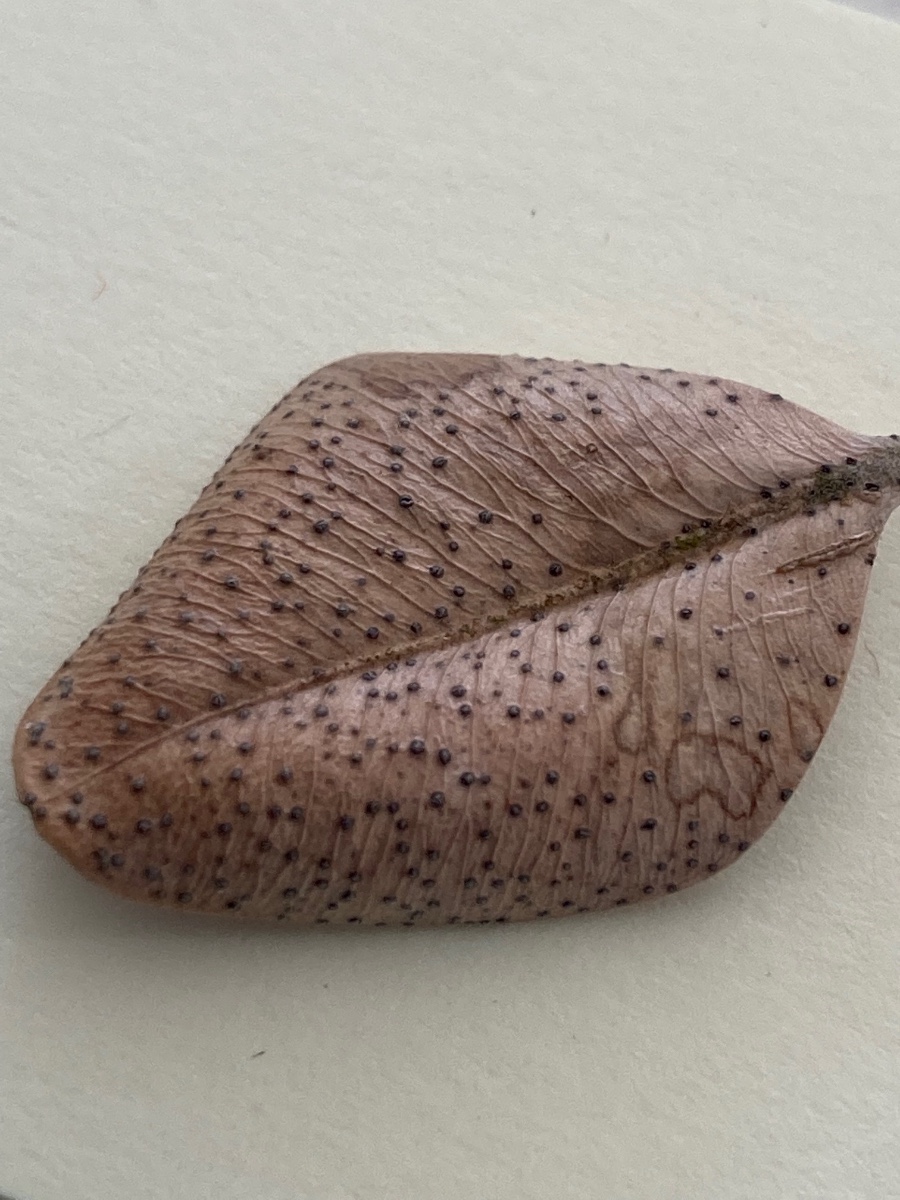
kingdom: Fungi
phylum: Ascomycota
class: Sordariomycetes
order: Diaporthales
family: Diaporthaceae
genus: Diaporthe
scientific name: Diaporthe stictica
